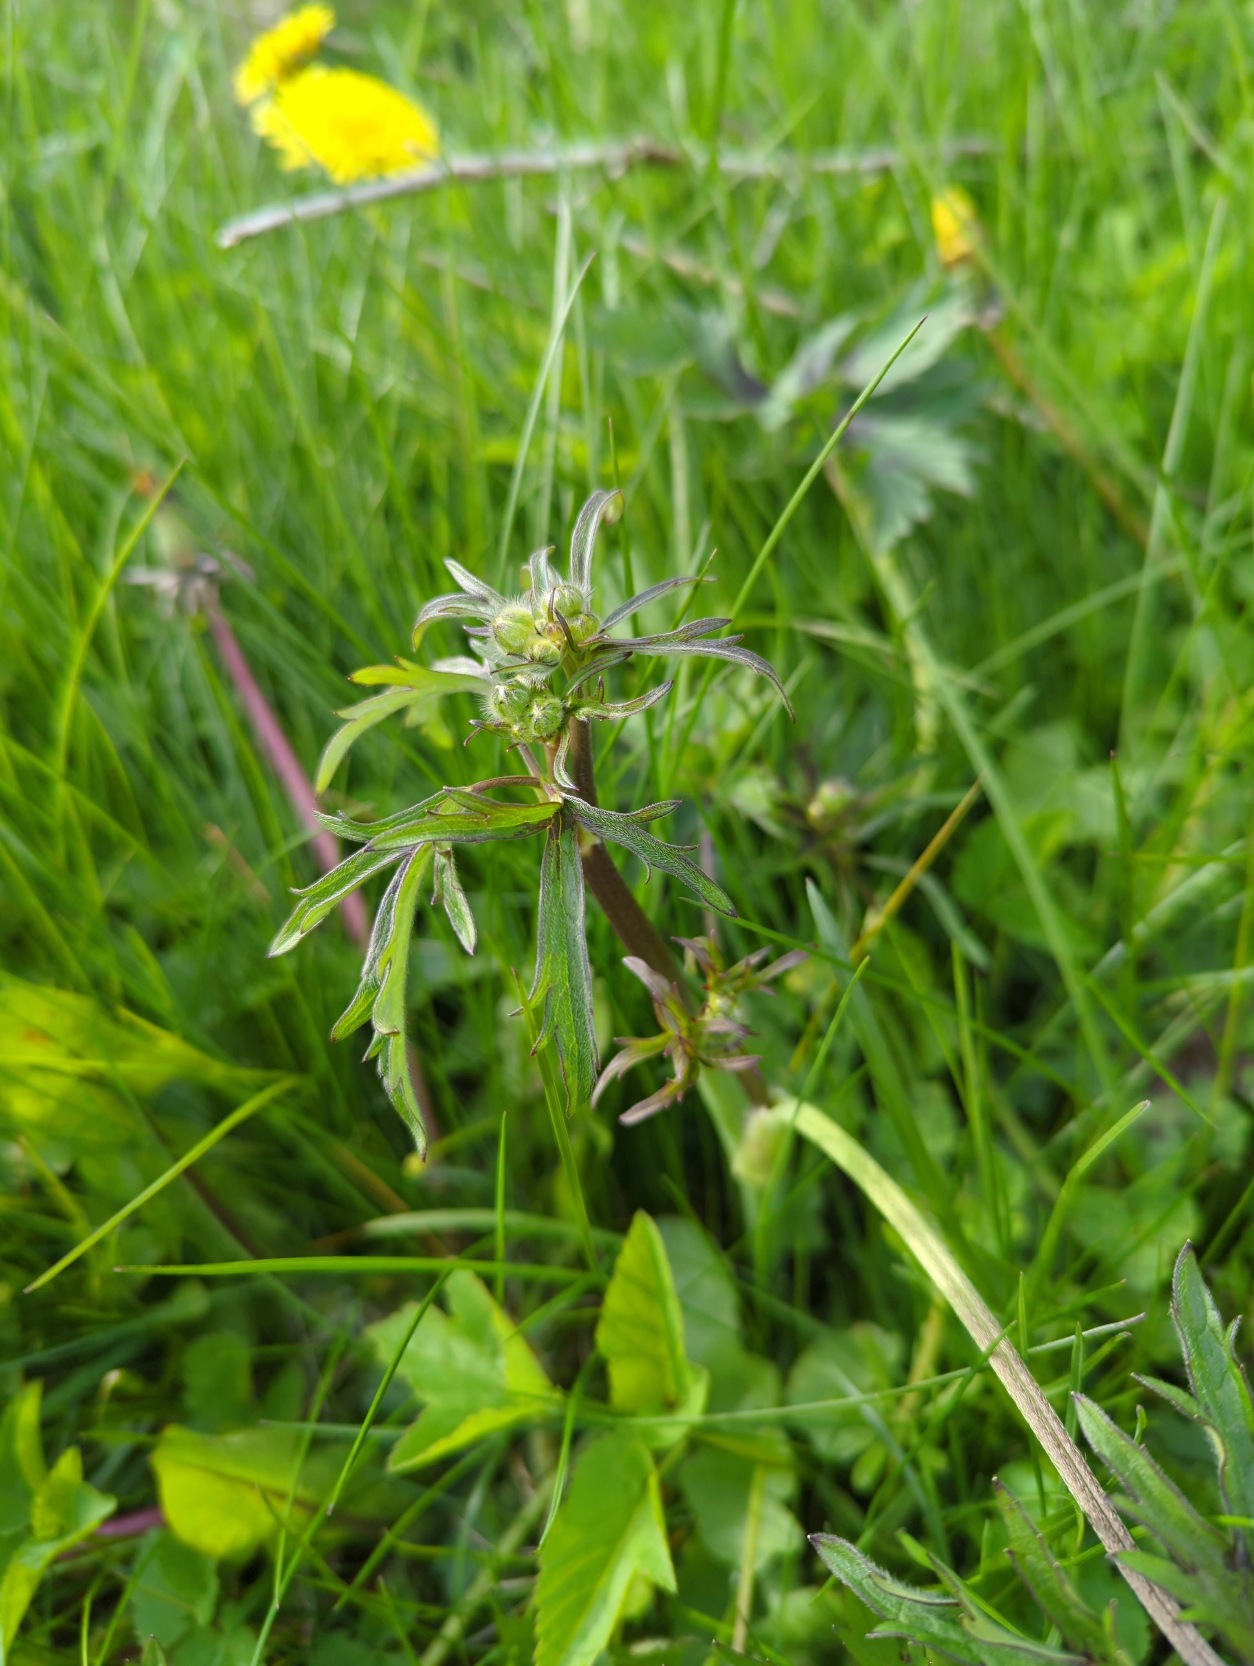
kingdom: Plantae
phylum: Tracheophyta
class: Magnoliopsida
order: Ranunculales
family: Ranunculaceae
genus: Ranunculus
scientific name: Ranunculus acris
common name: Bidende ranunkel
